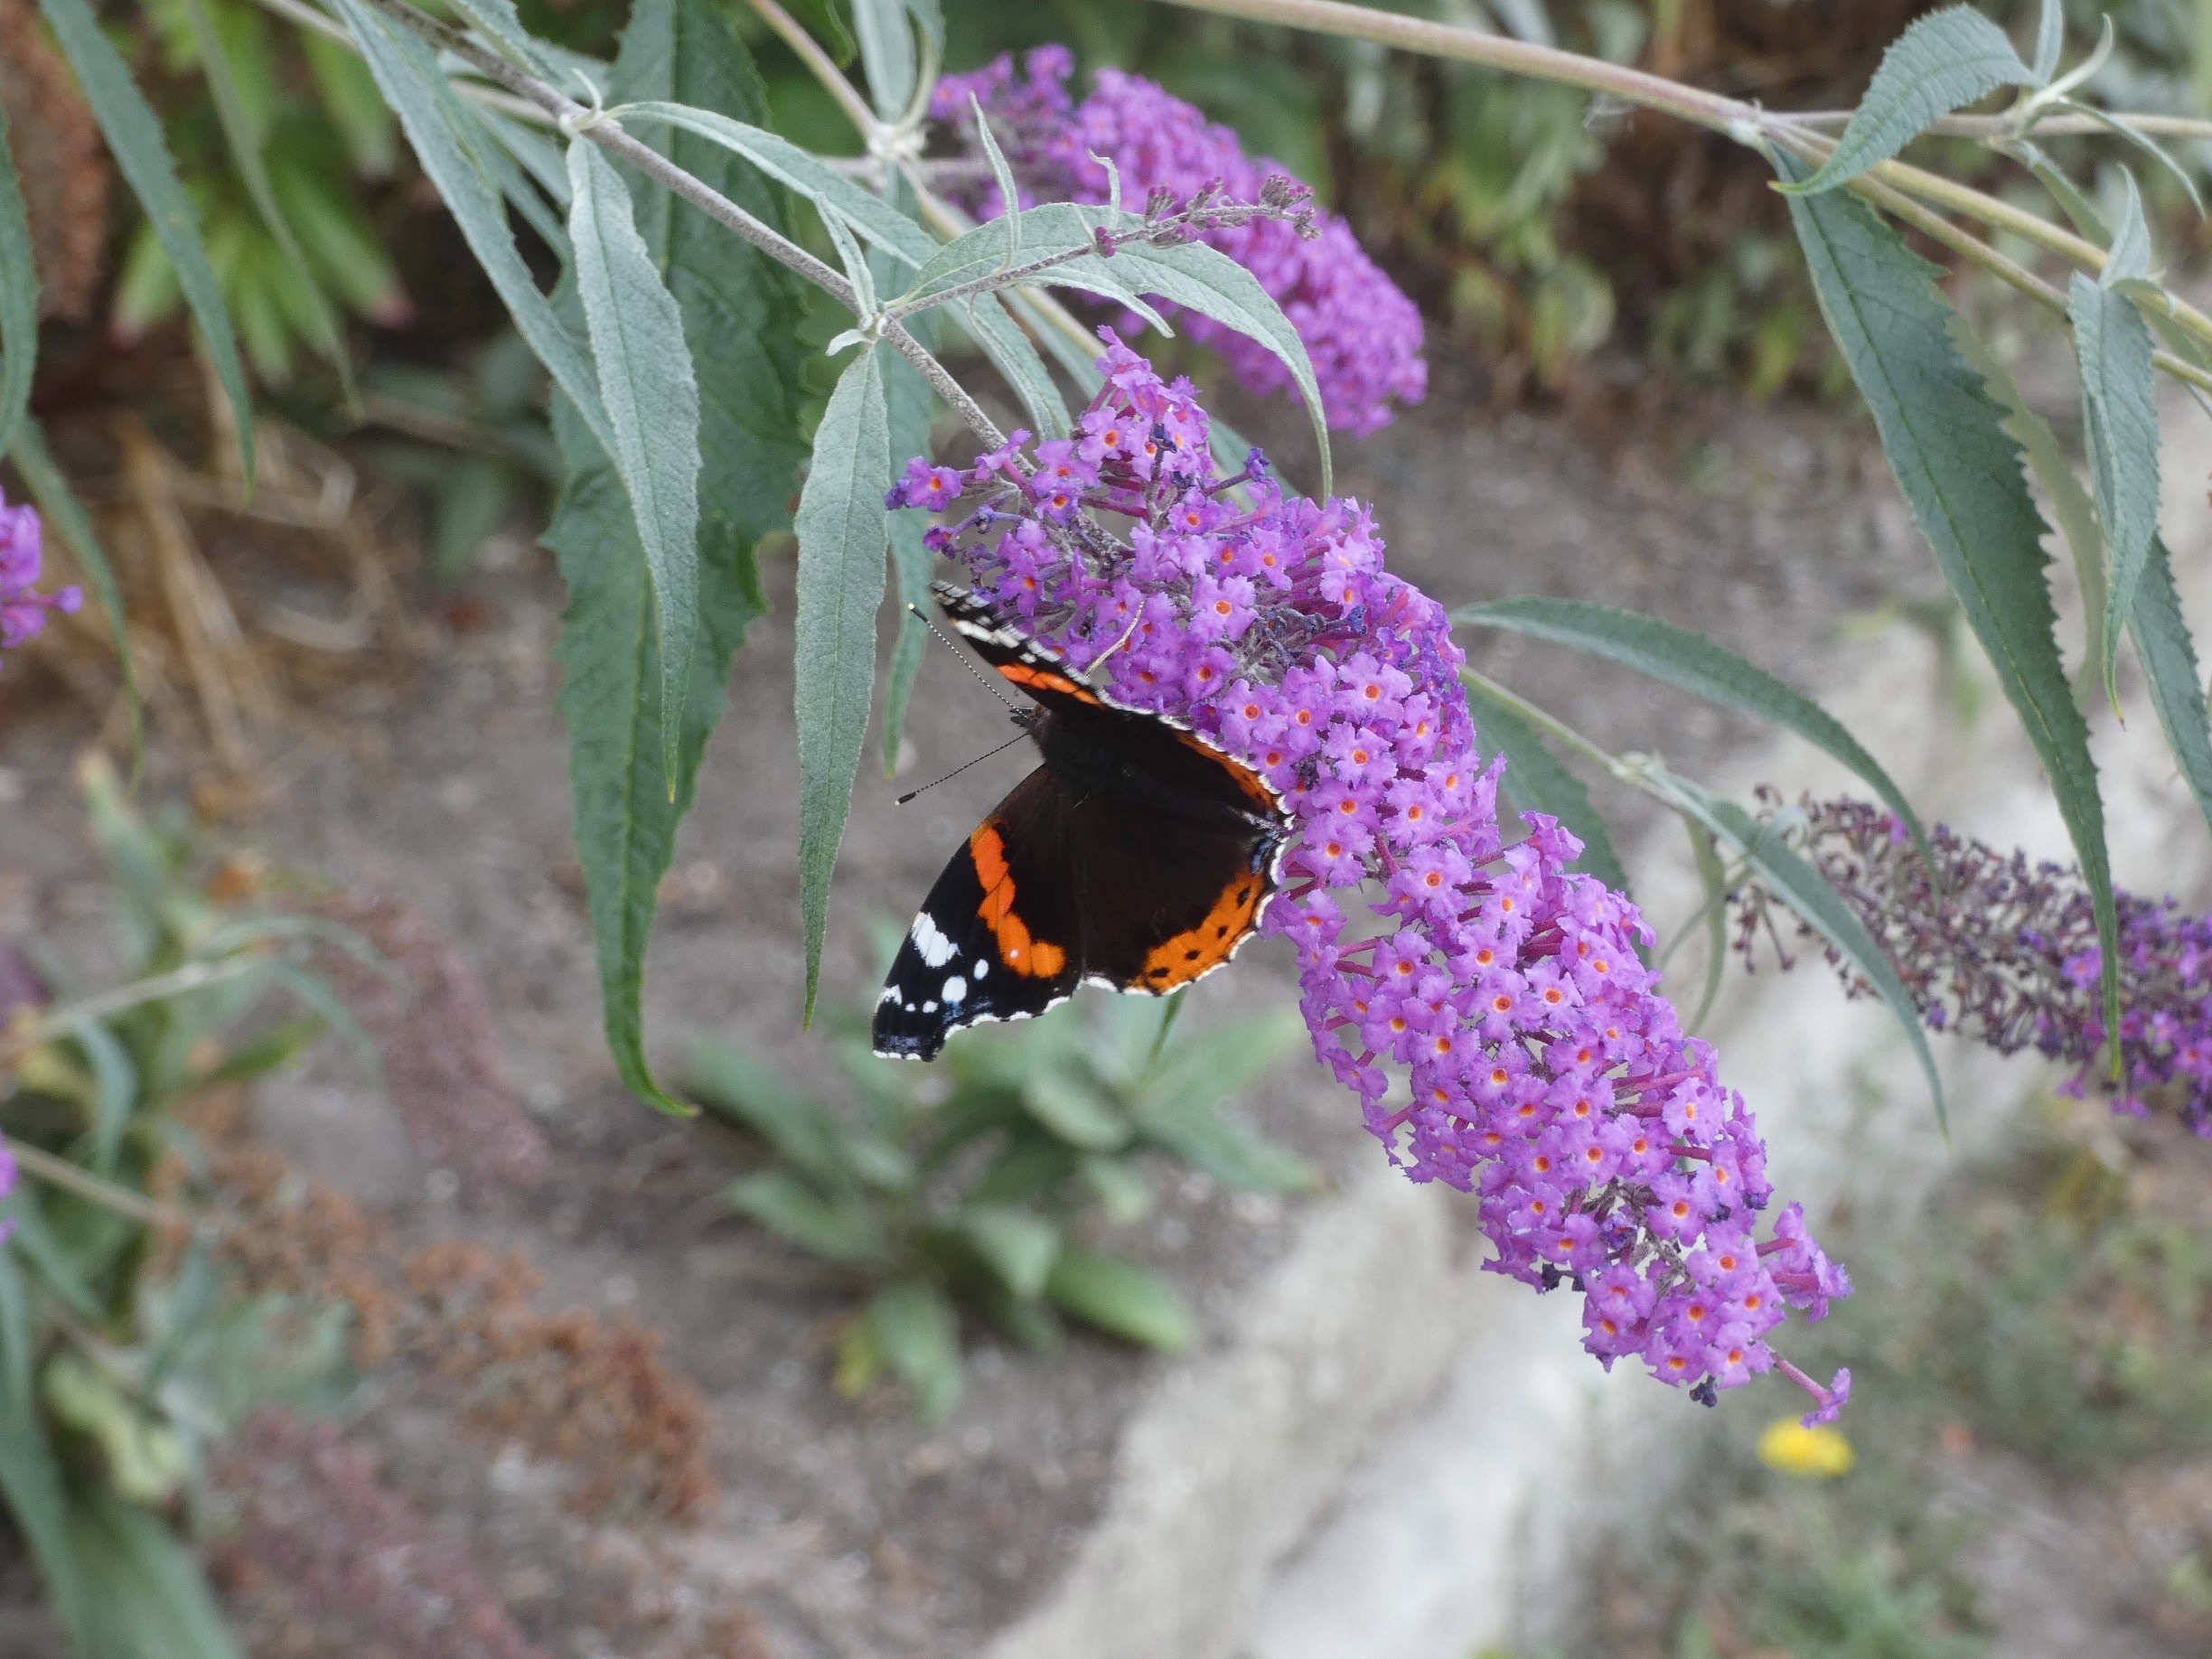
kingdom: Animalia
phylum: Arthropoda
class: Insecta
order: Lepidoptera
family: Nymphalidae
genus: Vanessa
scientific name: Vanessa atalanta
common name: Admiral
